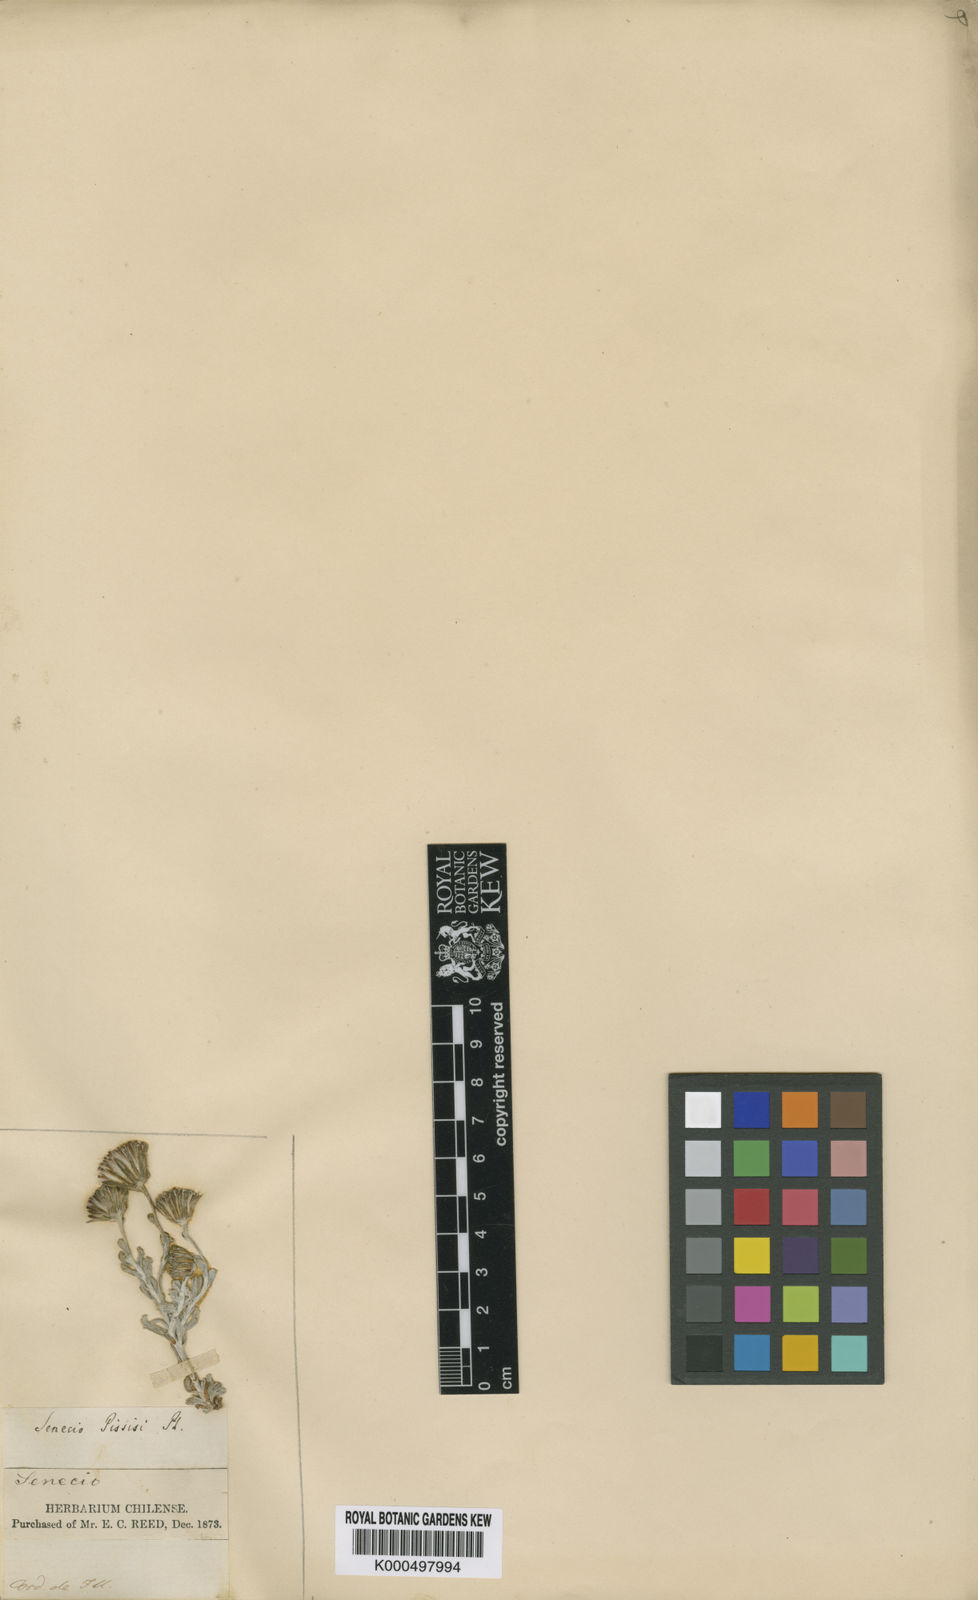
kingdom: Plantae
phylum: Tracheophyta
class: Magnoliopsida
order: Asterales
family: Asteraceae
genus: Senecio
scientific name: Senecio pissisi
